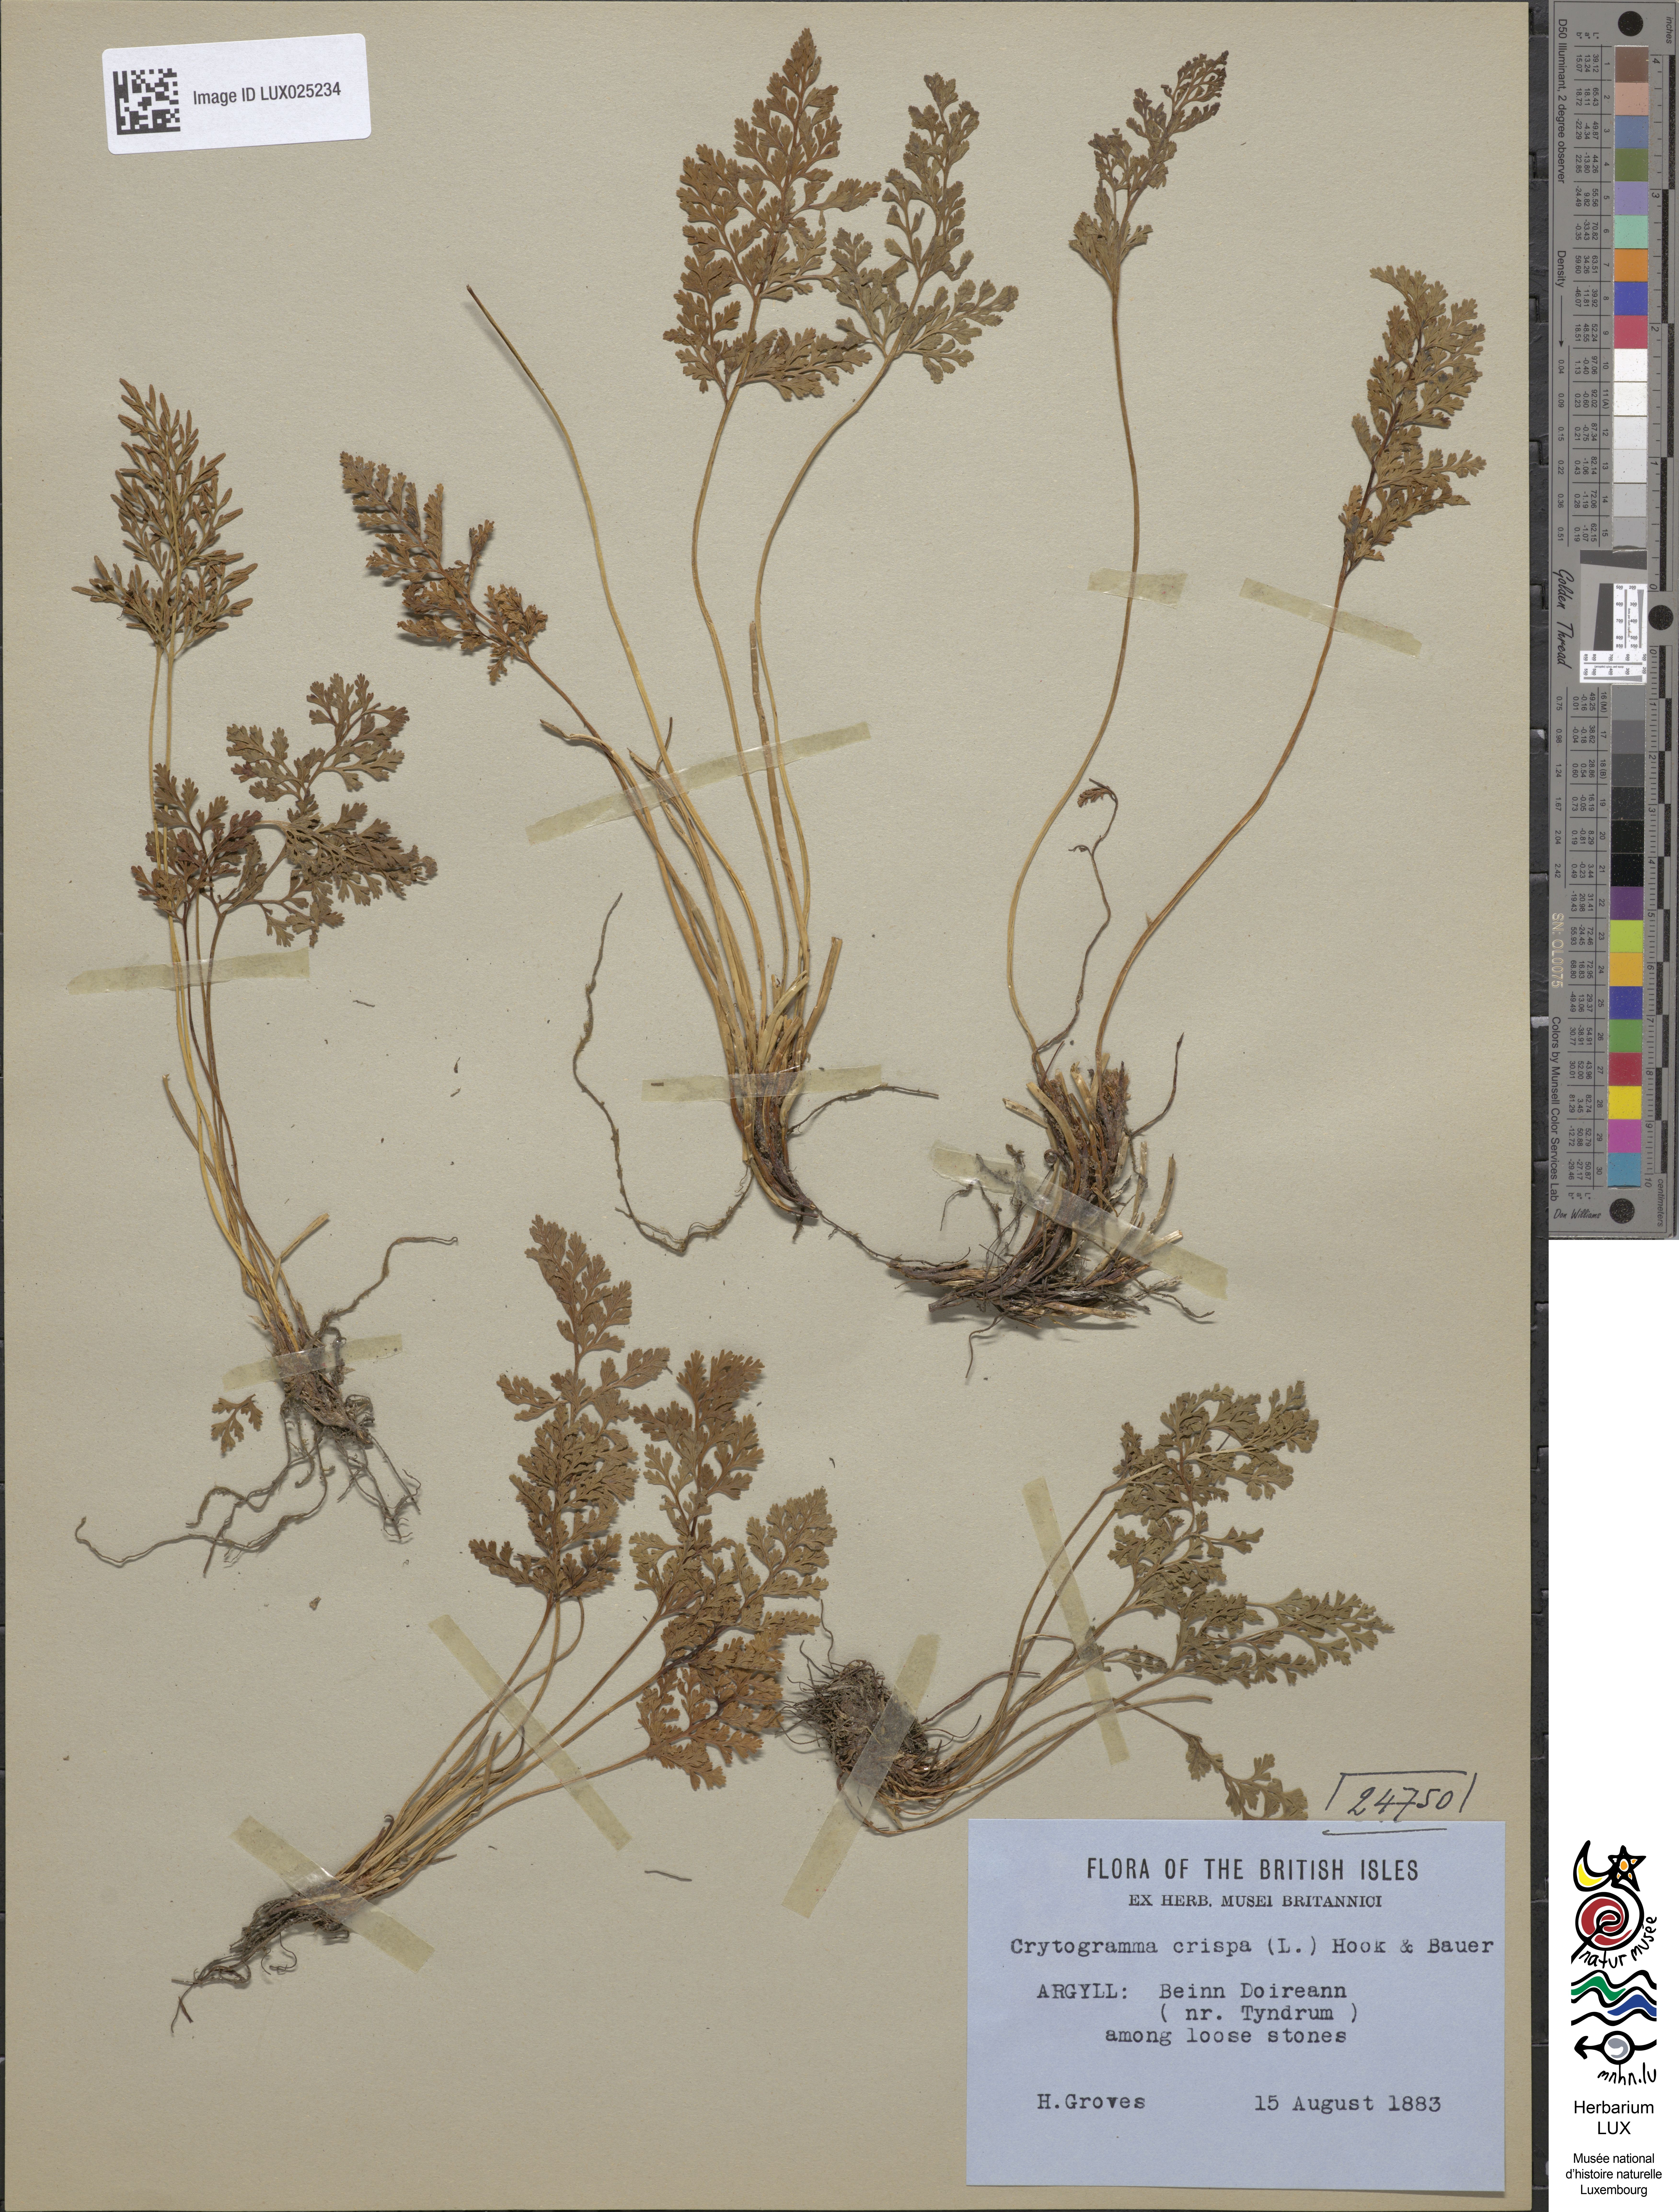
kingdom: Plantae
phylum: Tracheophyta
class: Polypodiopsida
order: Polypodiales
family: Pteridaceae
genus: Cryptogramma
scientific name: Cryptogramma crispa
